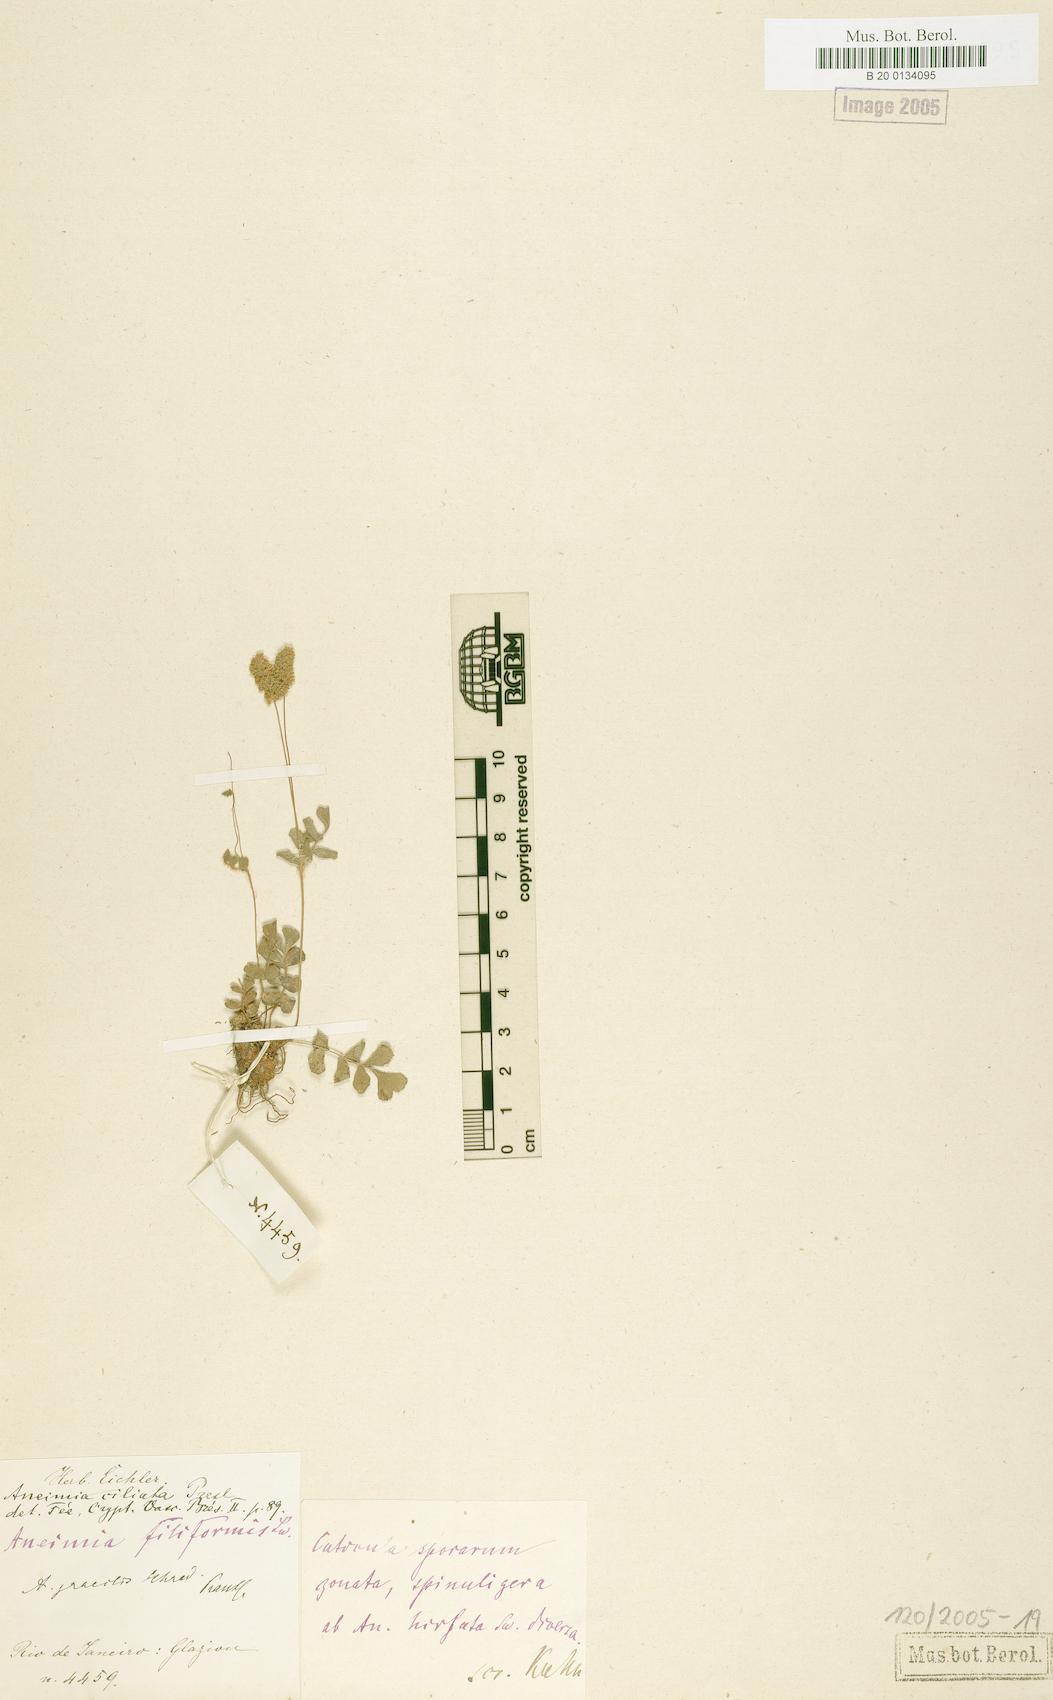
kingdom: Plantae
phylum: Tracheophyta
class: Polypodiopsida
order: Schizaeales
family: Anemiaceae
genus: Anemia
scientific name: Anemia repens
